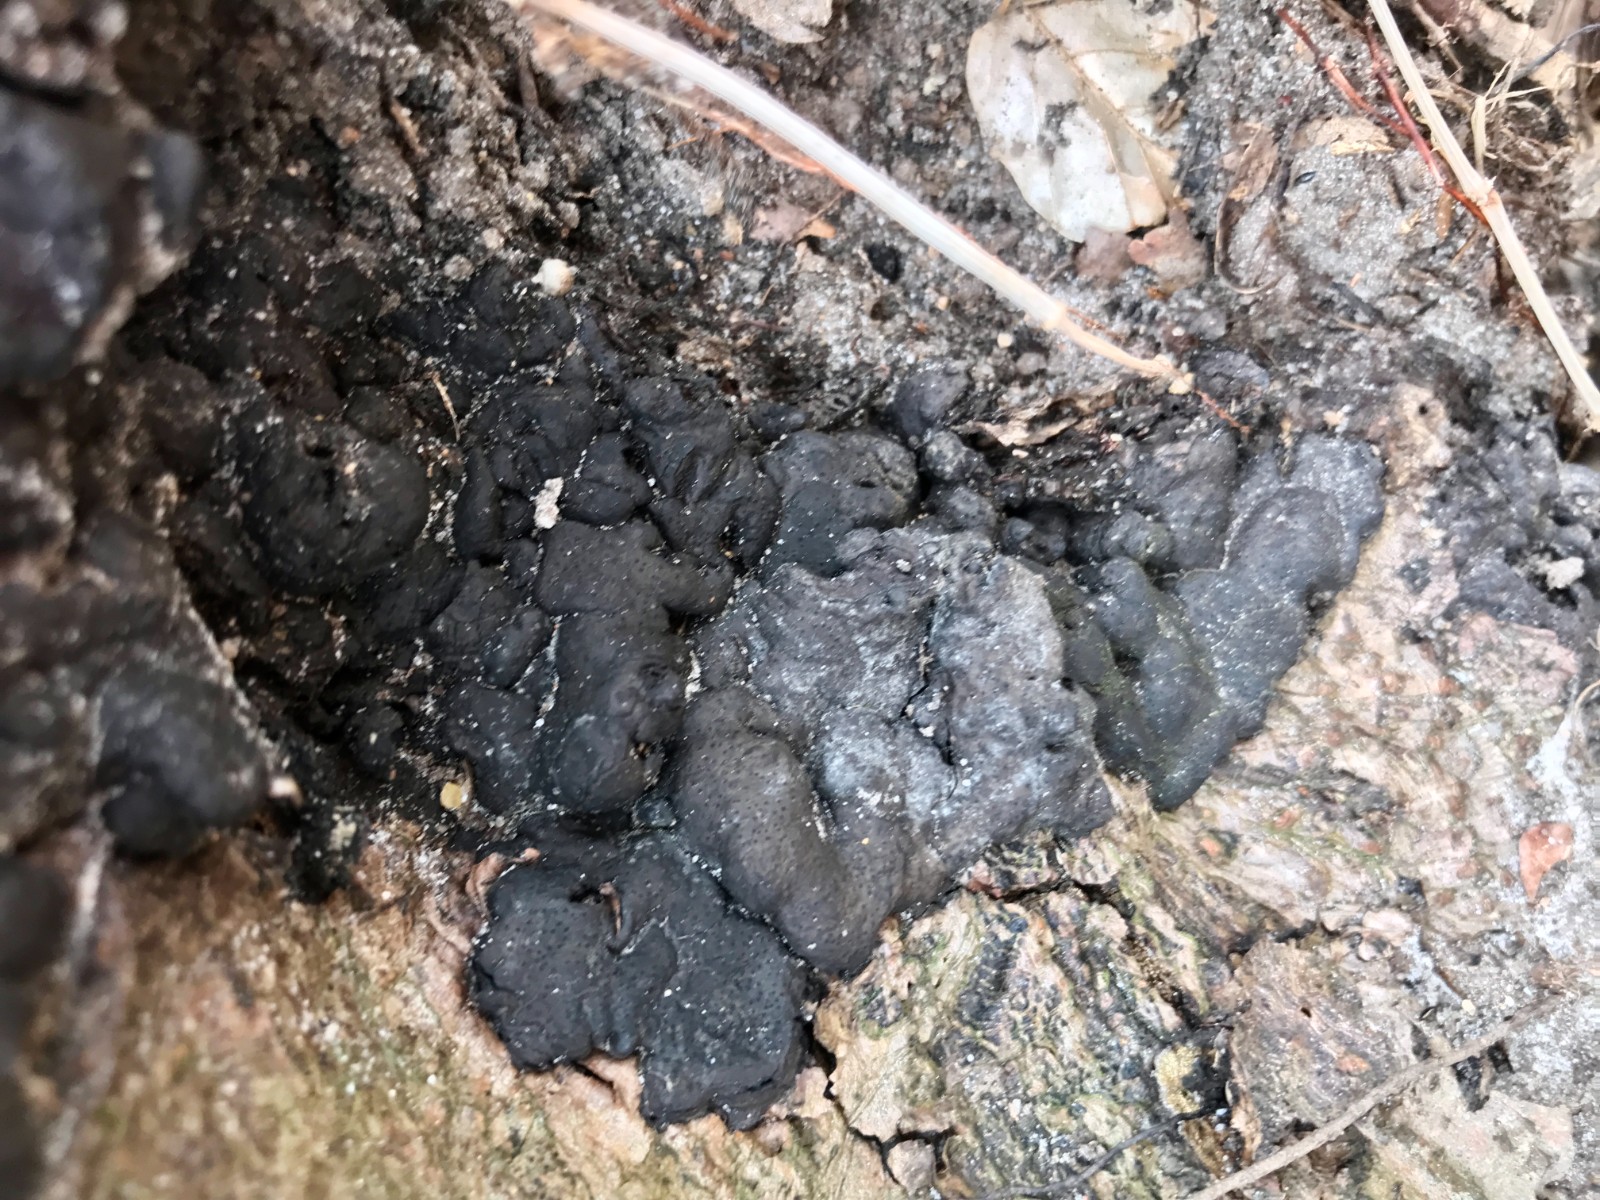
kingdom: Fungi
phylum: Ascomycota
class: Sordariomycetes
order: Xylariales
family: Xylariaceae
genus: Kretzschmaria
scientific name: Kretzschmaria deusta
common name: stor kulsvamp
